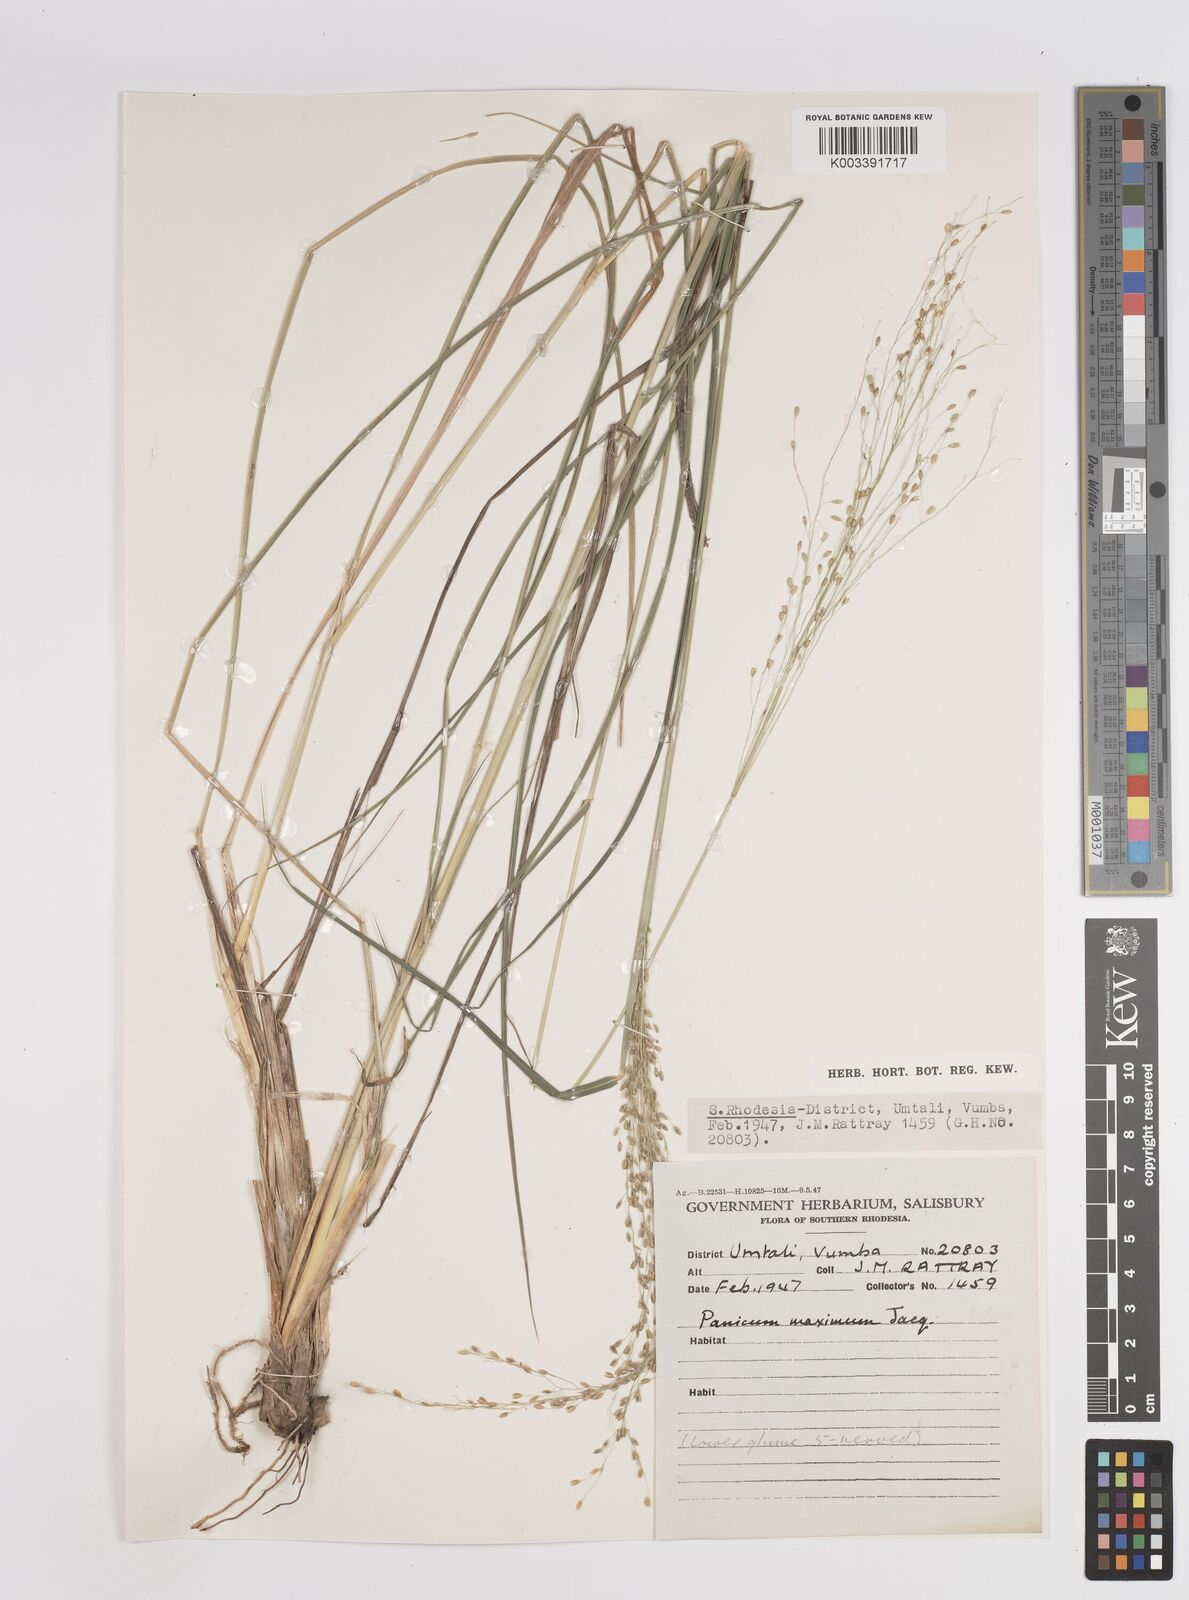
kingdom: Plantae
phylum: Tracheophyta
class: Liliopsida
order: Poales
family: Poaceae
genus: Megathyrsus
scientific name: Megathyrsus maximus
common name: Guineagrass
